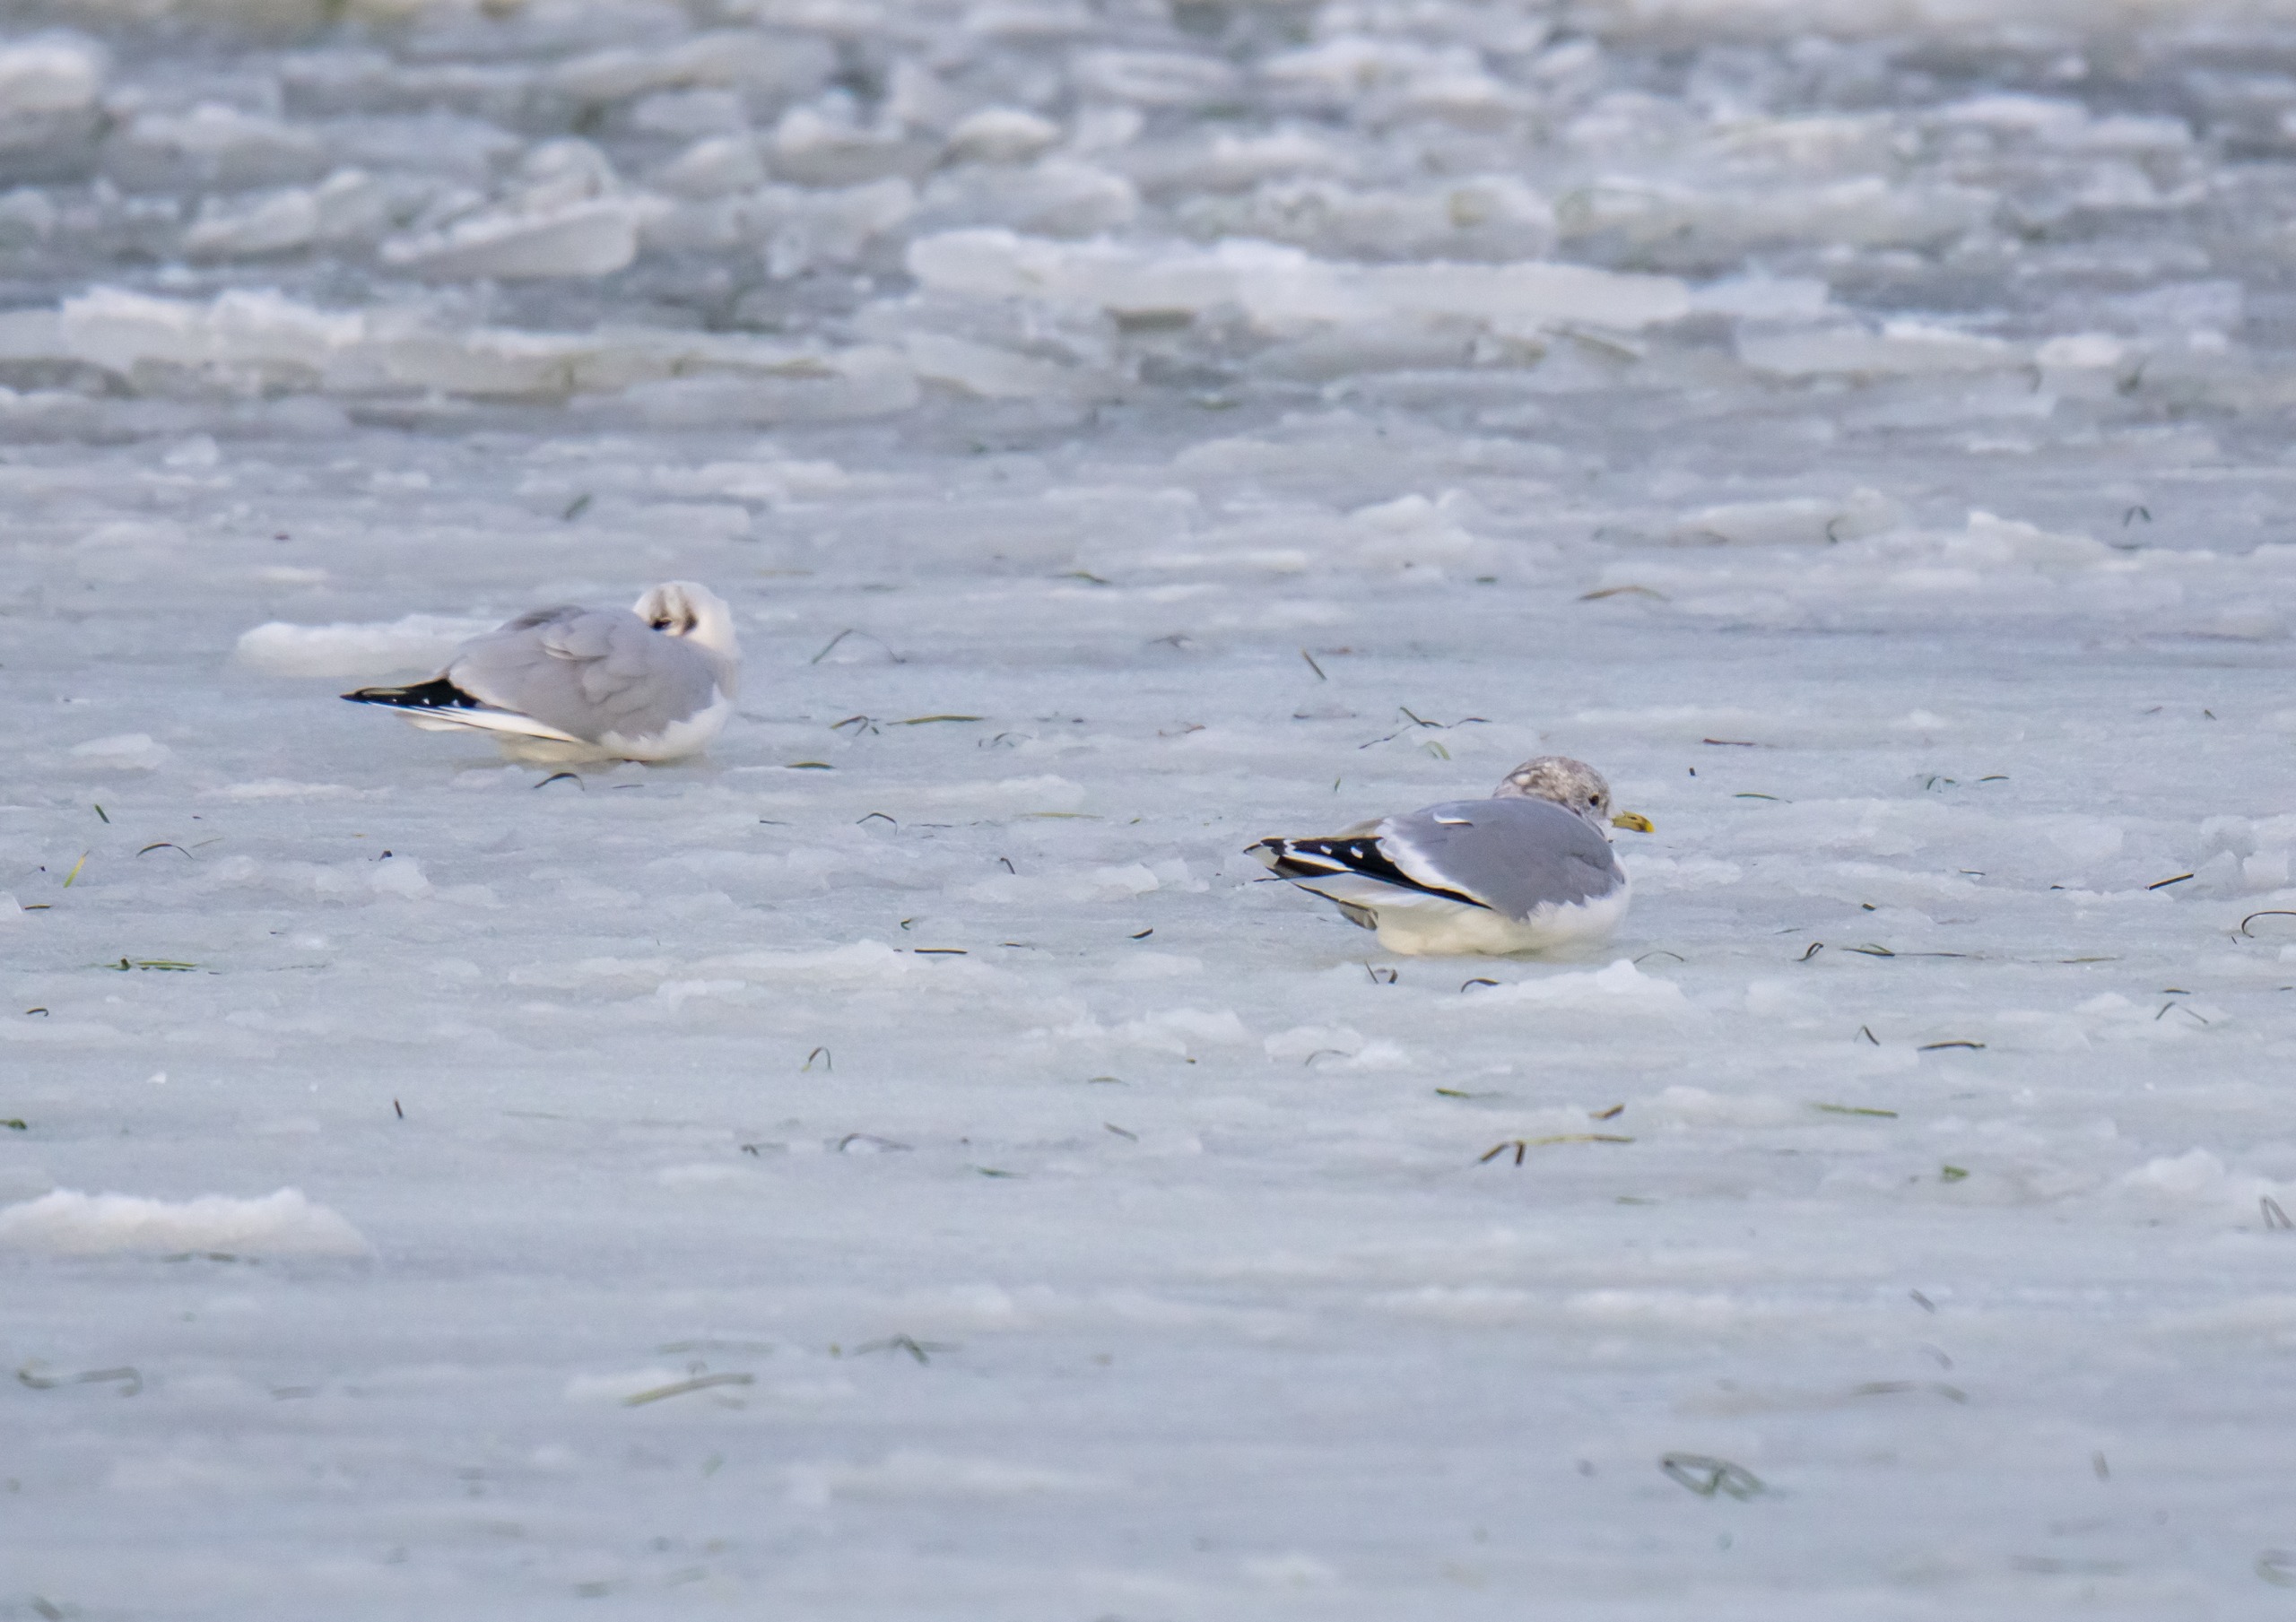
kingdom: Animalia
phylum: Chordata
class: Aves
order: Charadriiformes
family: Laridae
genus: Larus
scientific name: Larus canus
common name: Stormmåge
